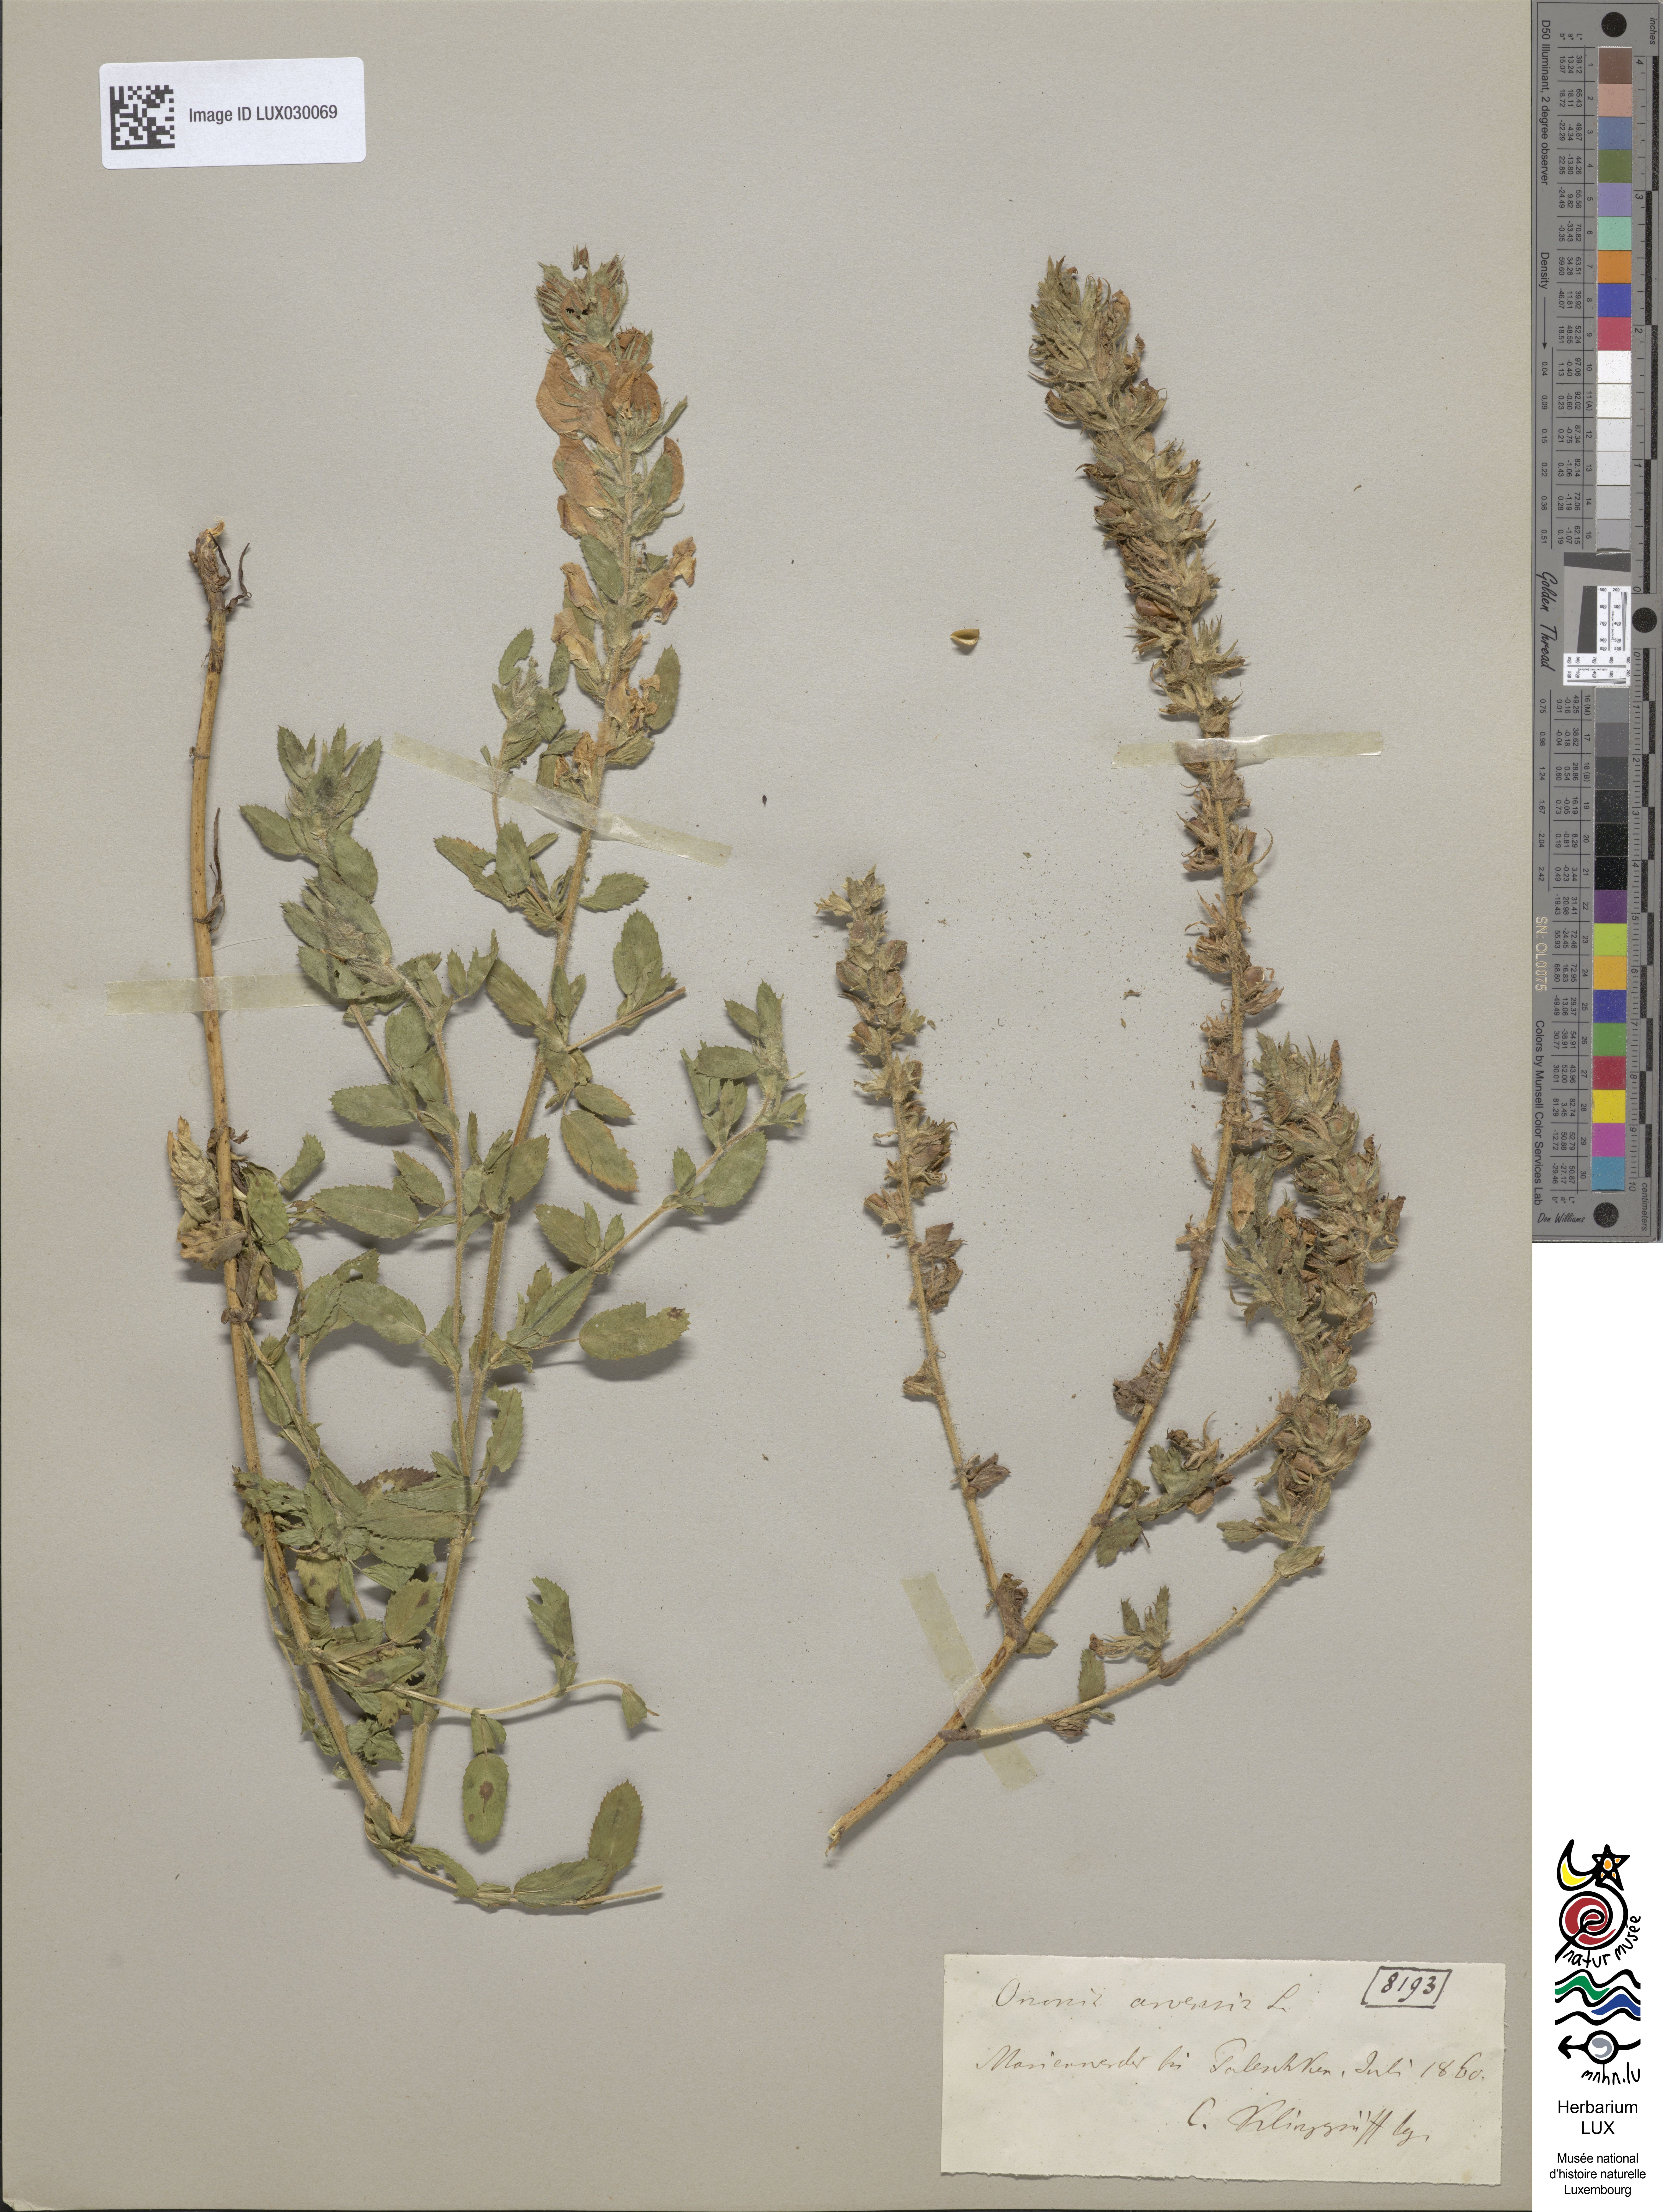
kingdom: Plantae
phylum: Tracheophyta
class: Magnoliopsida
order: Fabales
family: Fabaceae
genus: Ononis
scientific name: Ononis arvensis
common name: Field restharrow
